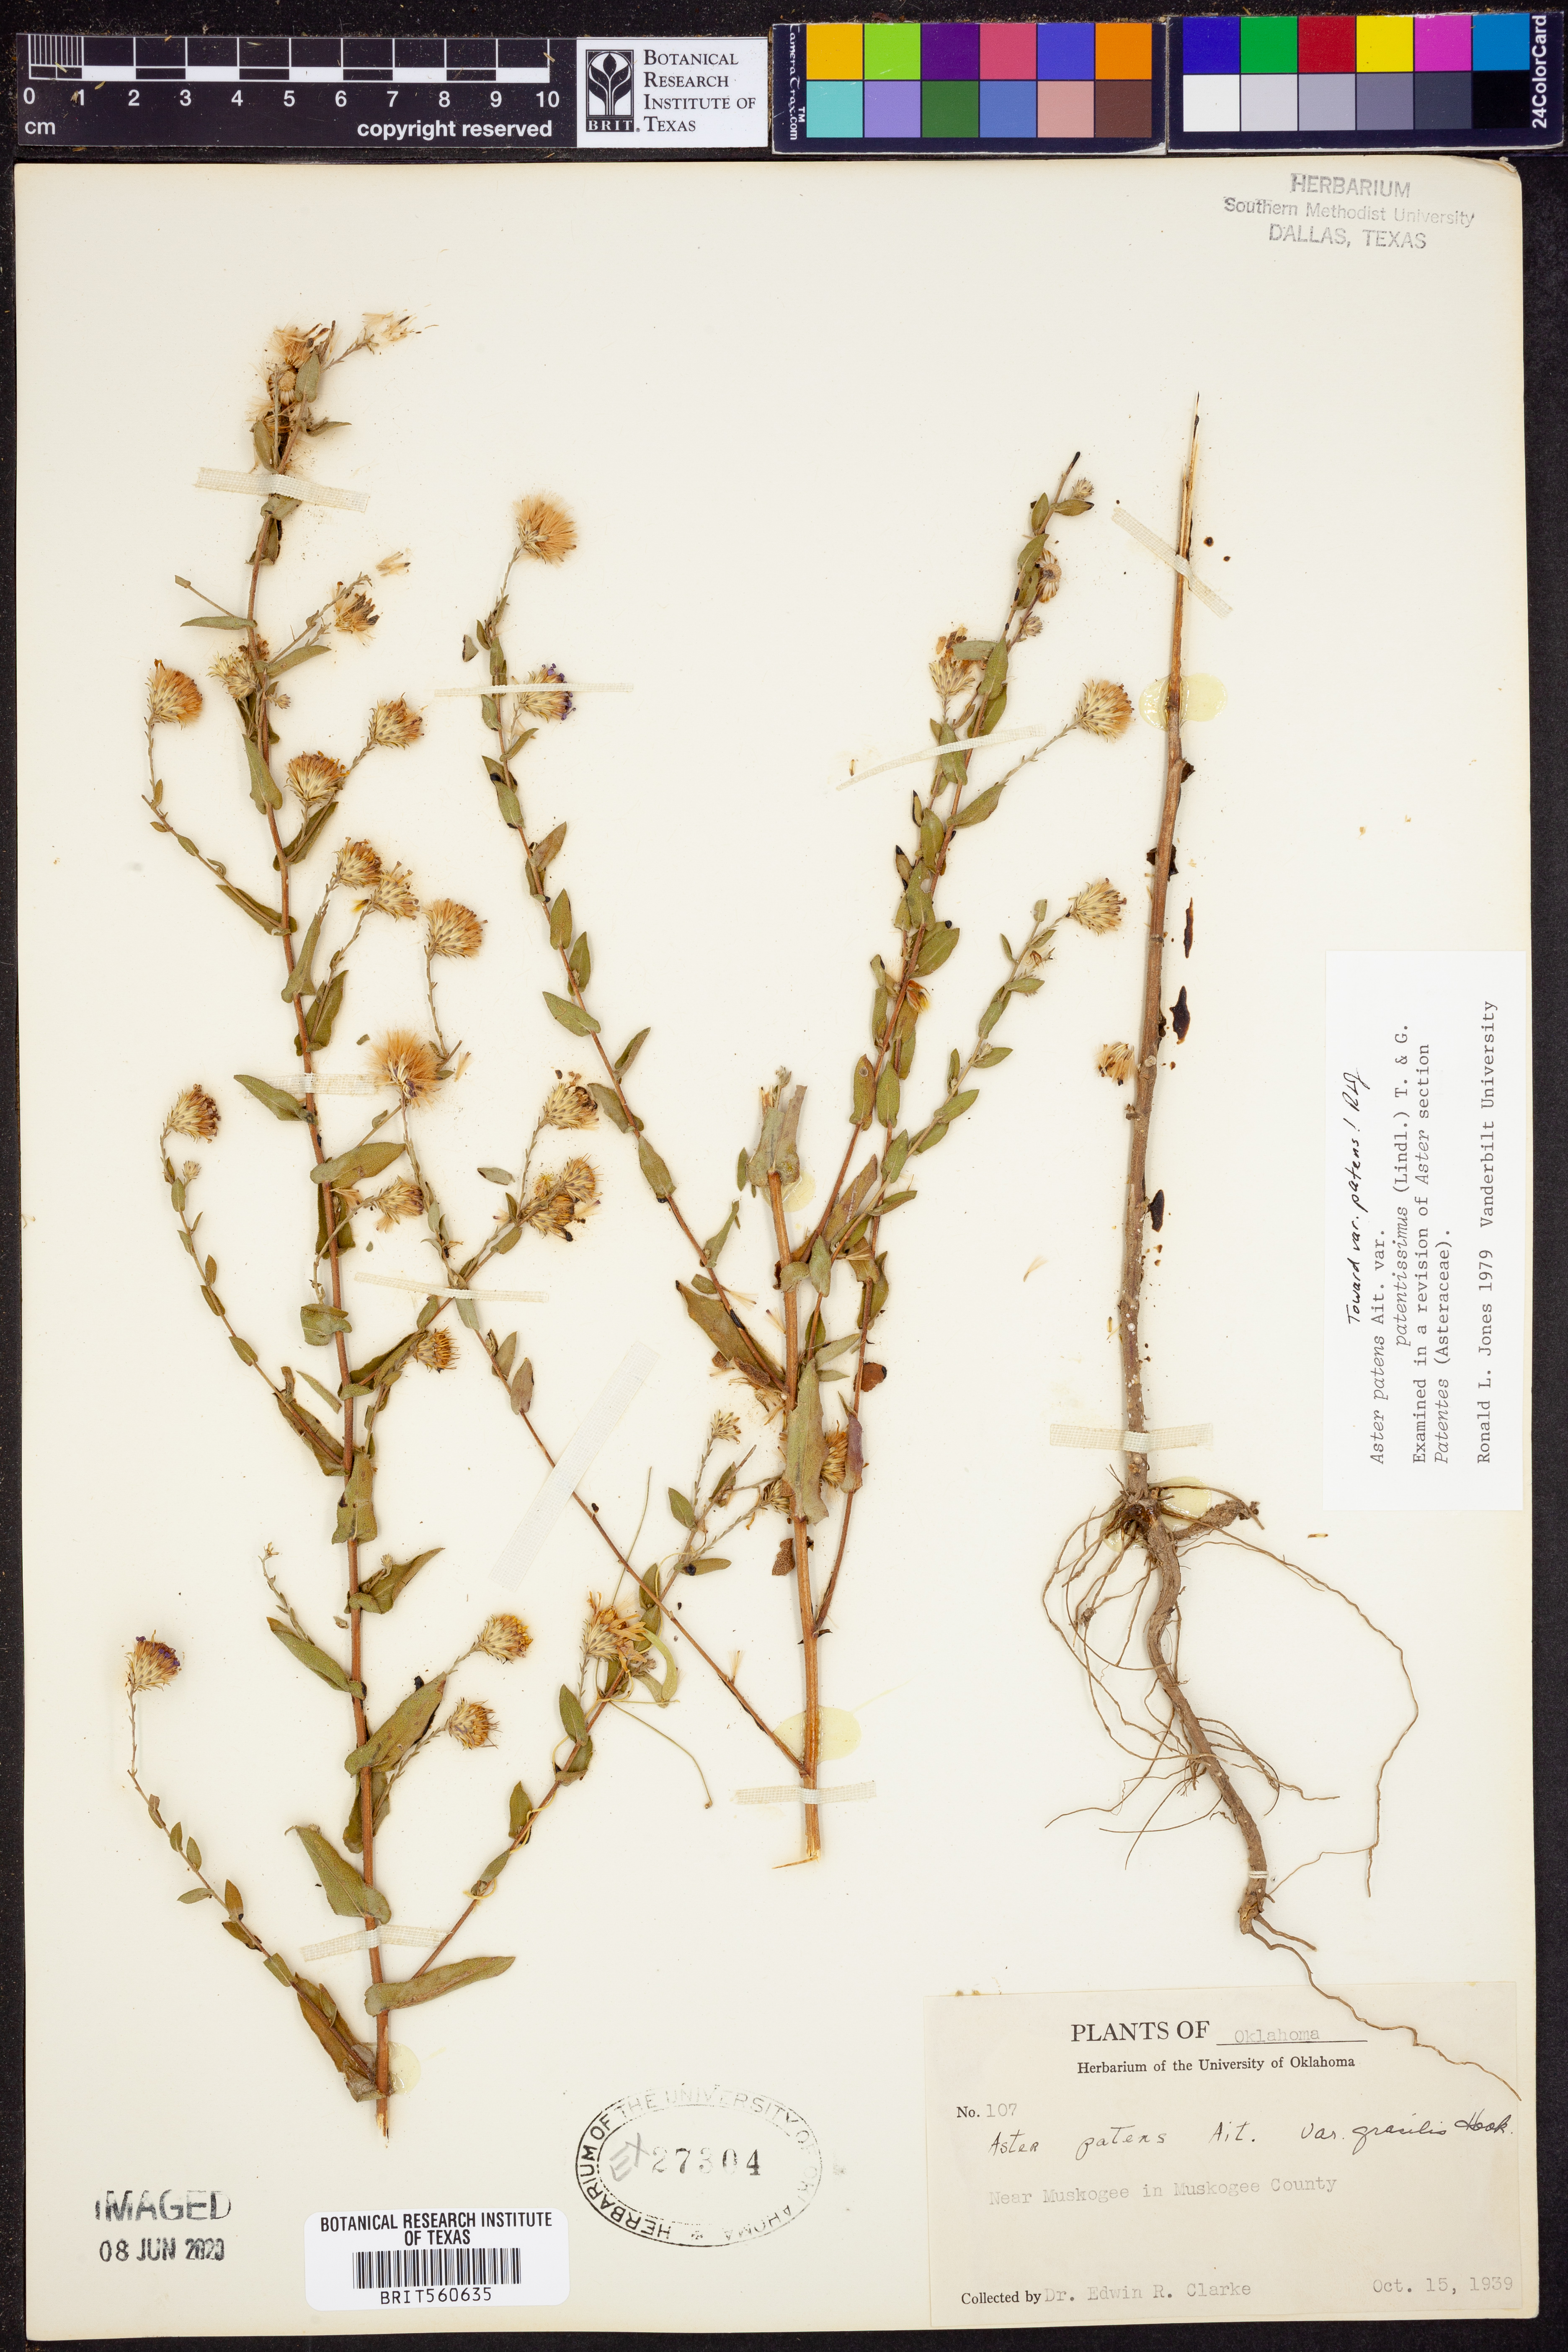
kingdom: Plantae
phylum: Tracheophyta
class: Magnoliopsida
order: Asterales
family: Asteraceae
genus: Symphyotrichum
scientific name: Symphyotrichum patens
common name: Late purple aster
